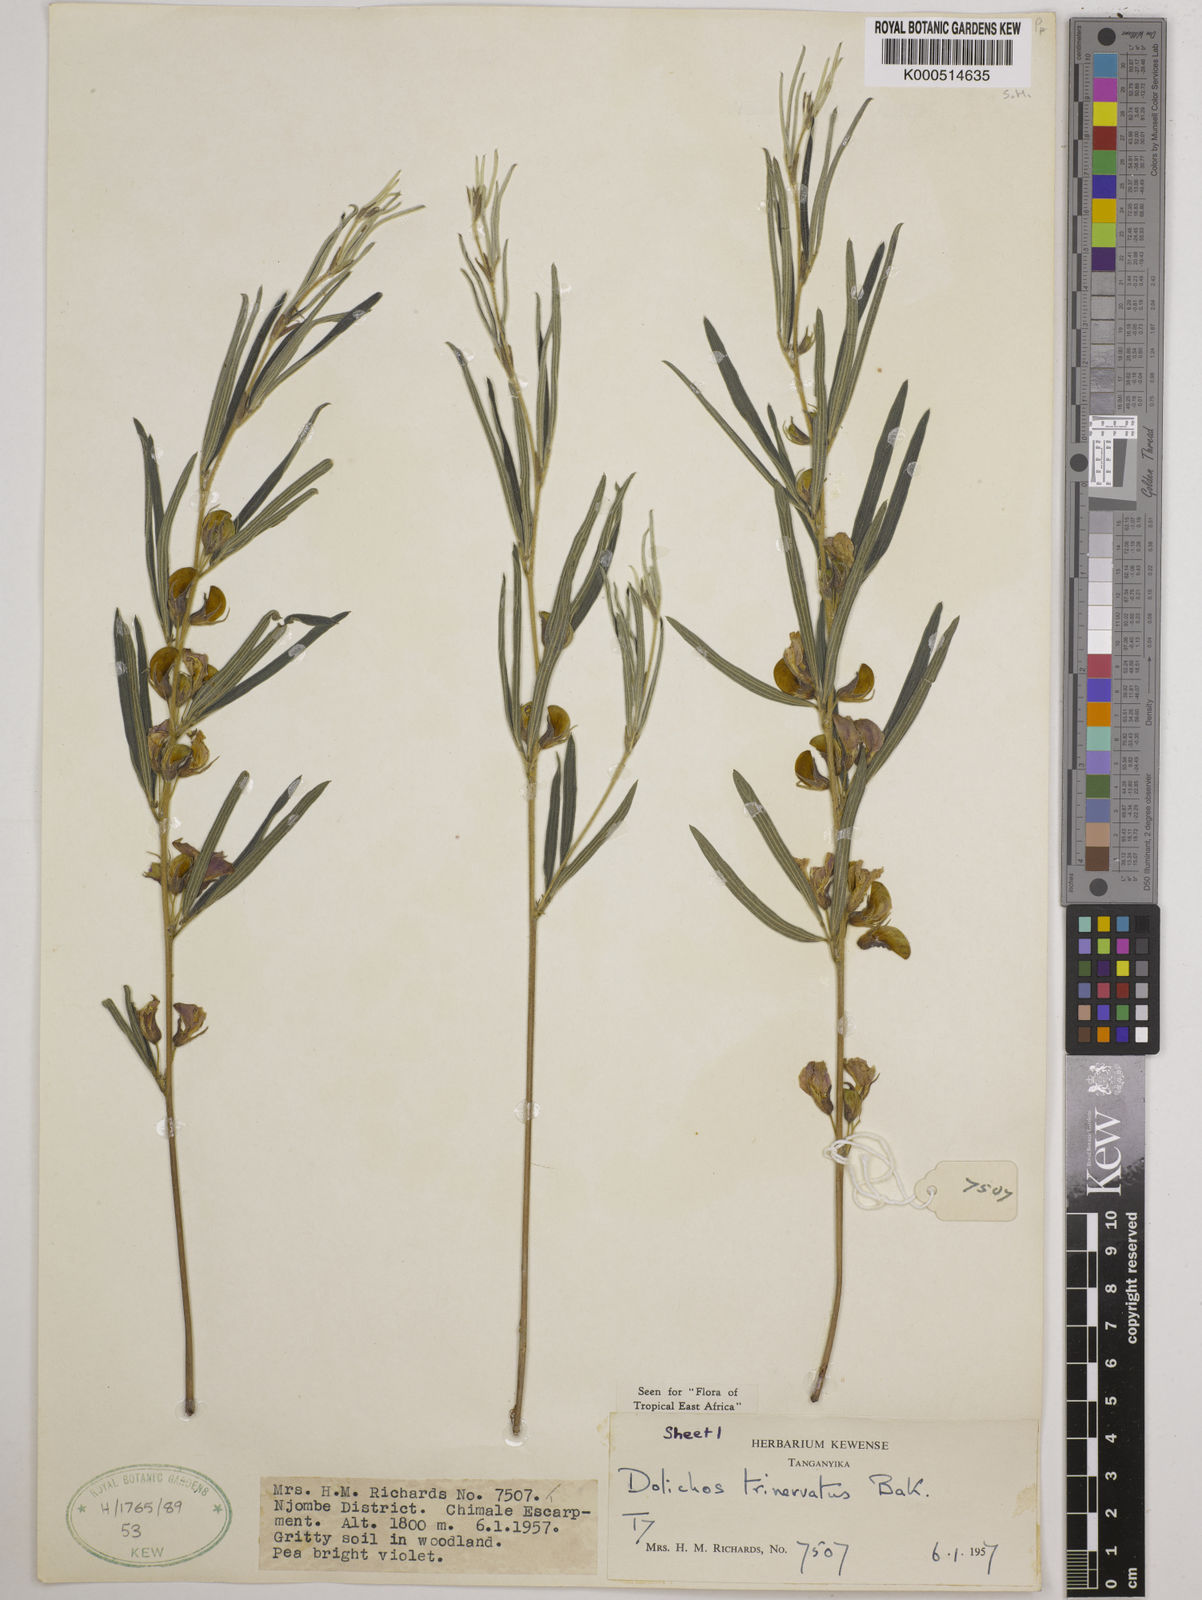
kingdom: Plantae
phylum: Tracheophyta
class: Magnoliopsida
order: Fabales
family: Fabaceae
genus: Dolichos
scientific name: Dolichos trinervatus
